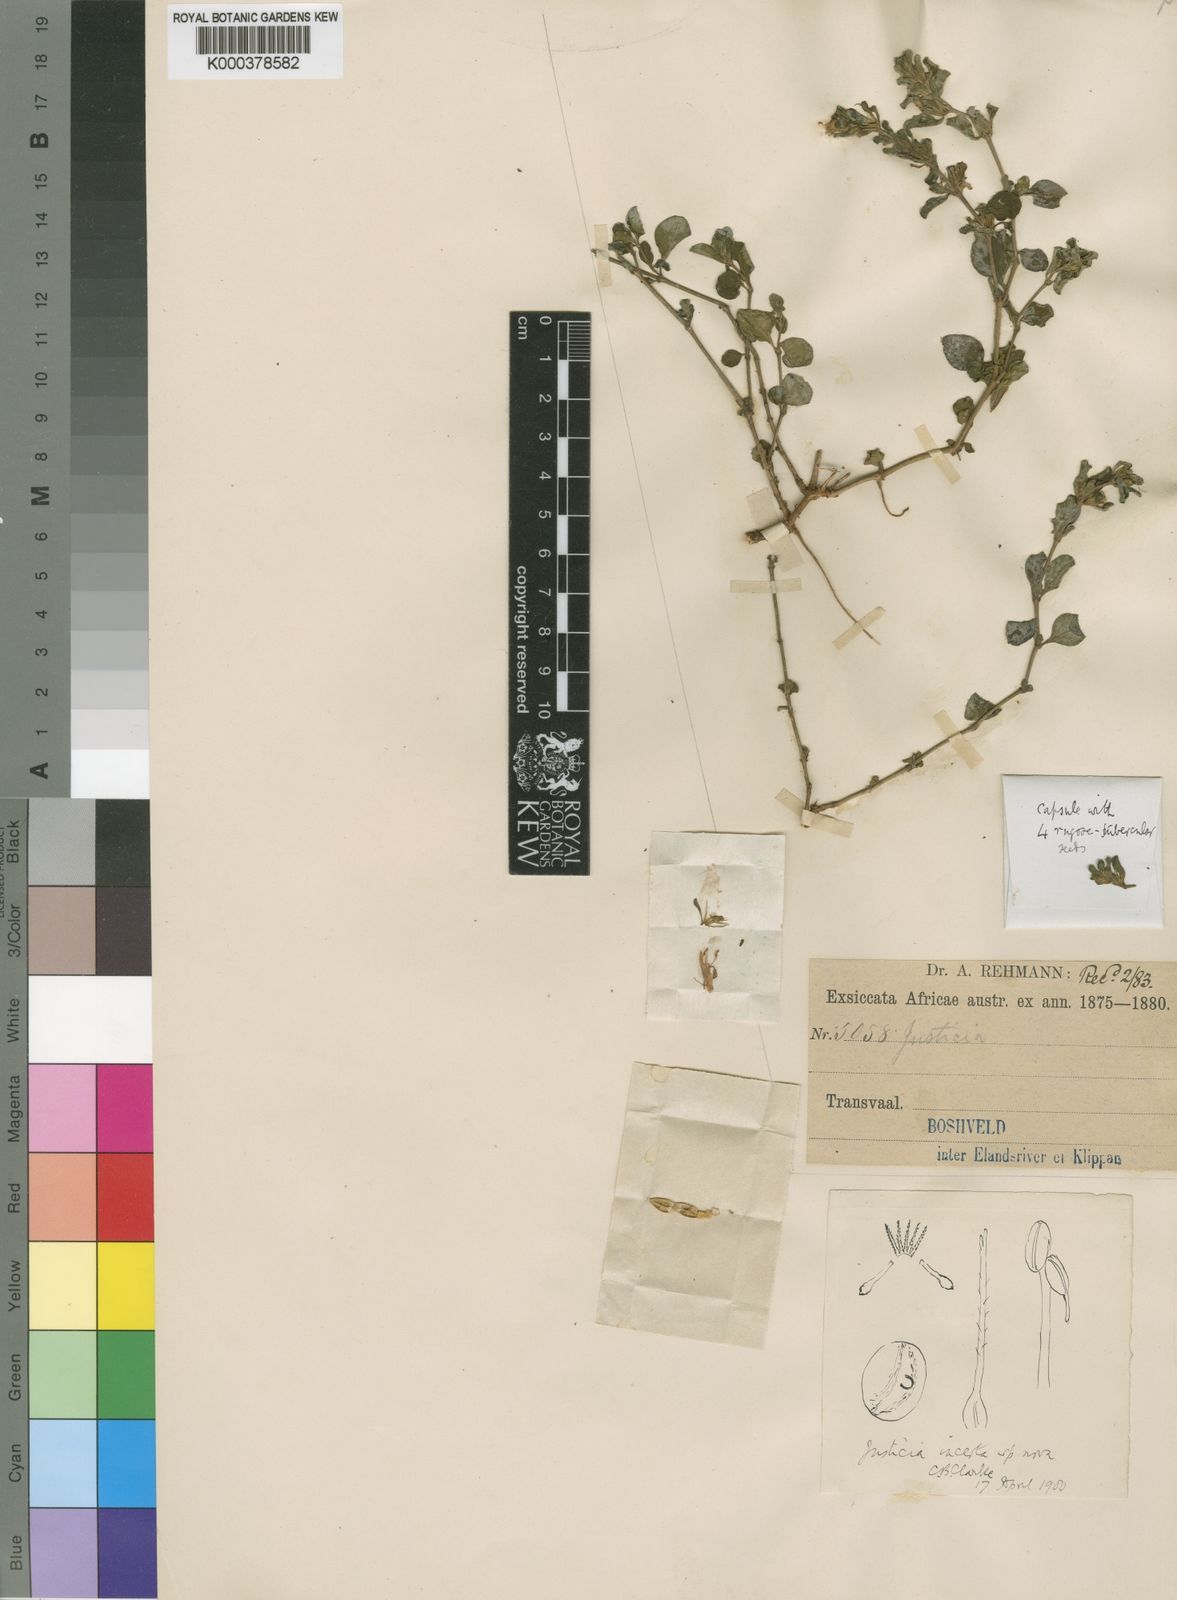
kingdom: Plantae
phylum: Tracheophyta
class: Magnoliopsida
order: Lamiales
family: Acanthaceae
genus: Justicia
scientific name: Justicia petiolaris
